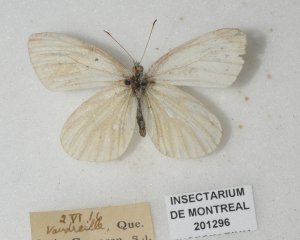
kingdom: Animalia
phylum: Arthropoda
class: Insecta
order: Lepidoptera
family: Pieridae
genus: Pieris
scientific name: Pieris oleracea
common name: Mustard White
